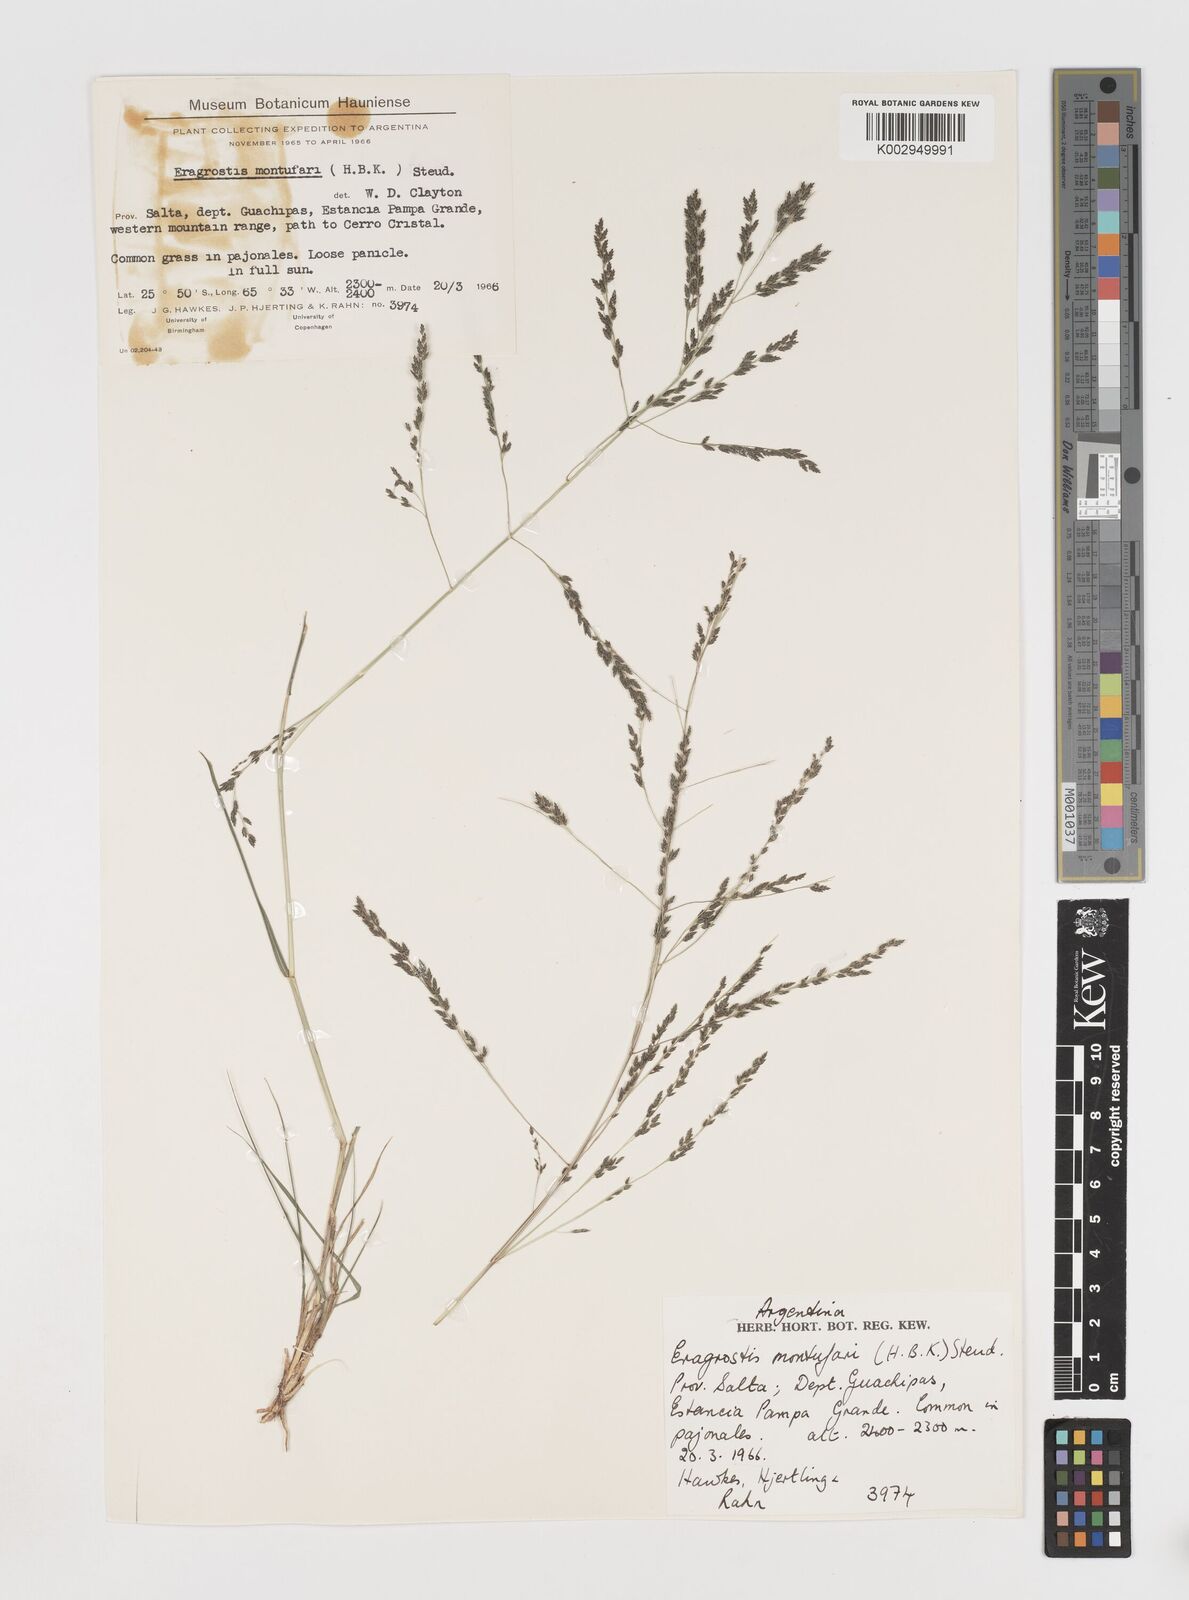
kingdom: Plantae
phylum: Tracheophyta
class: Liliopsida
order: Poales
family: Poaceae
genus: Eragrostis
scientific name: Eragrostis pastoensis
